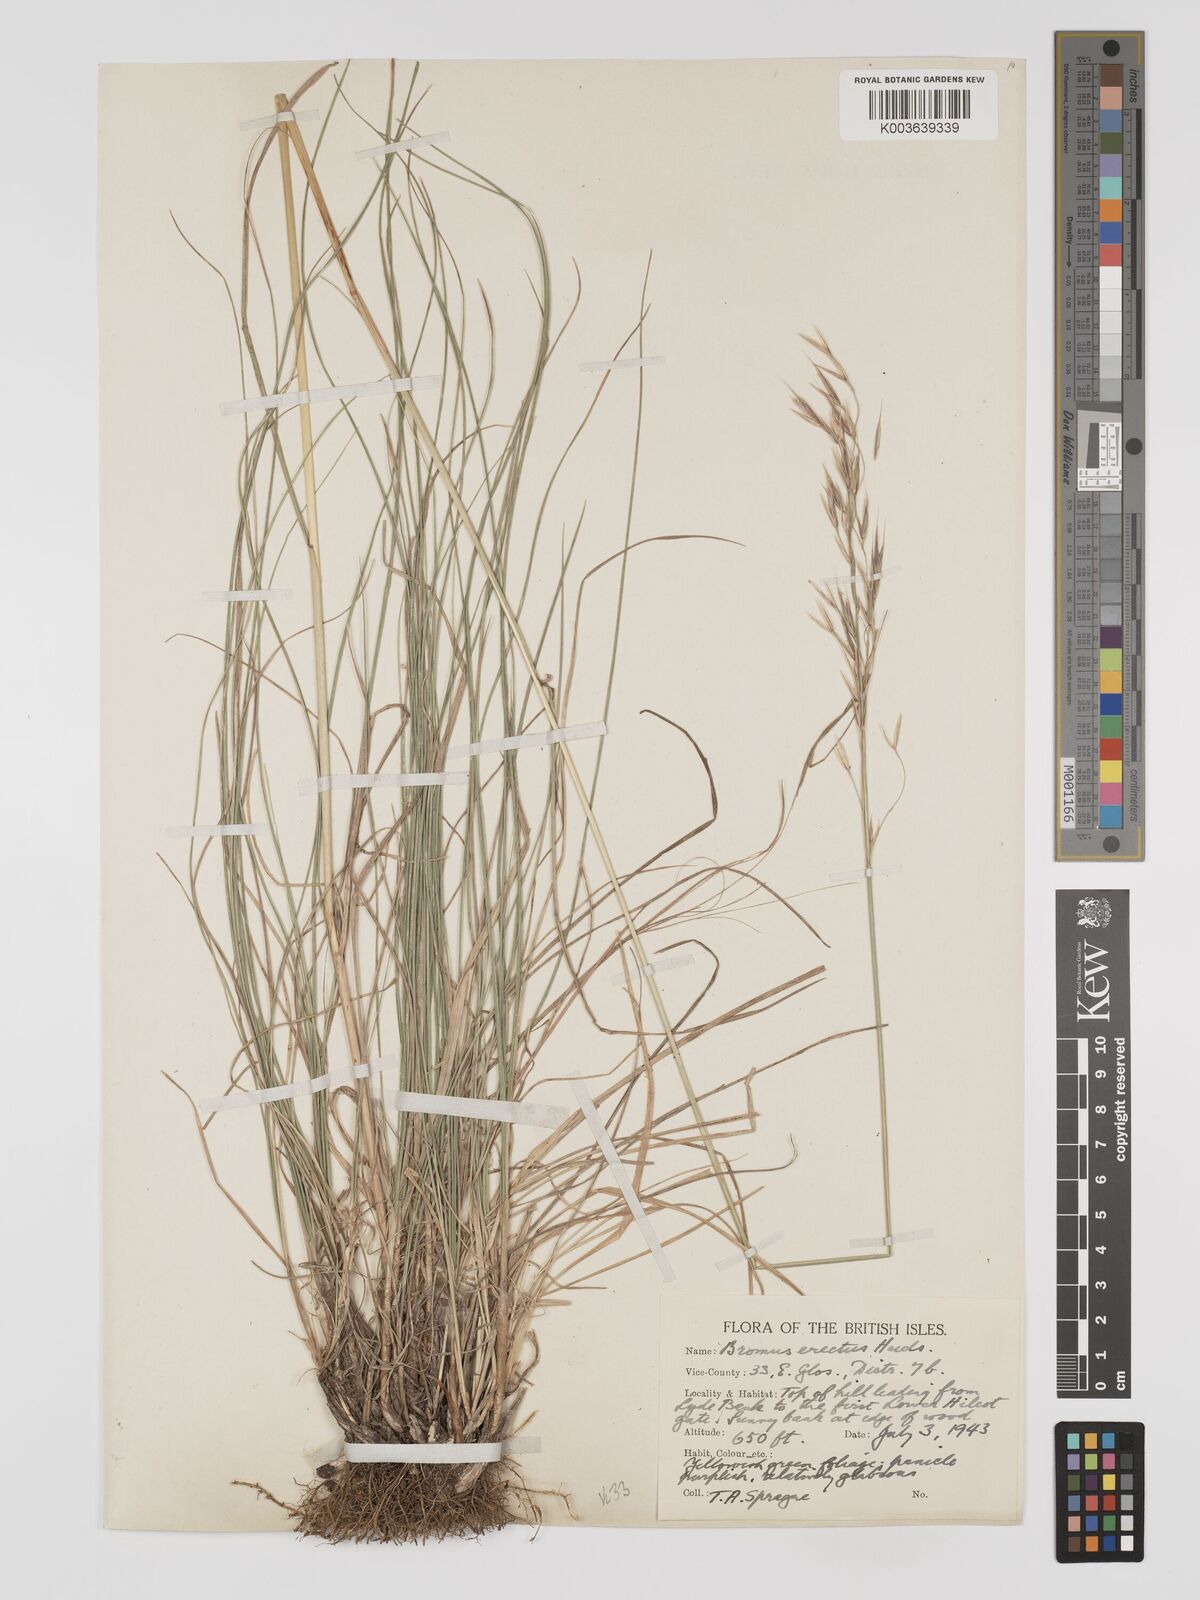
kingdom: Plantae
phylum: Tracheophyta
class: Liliopsida
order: Poales
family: Poaceae
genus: Bromus
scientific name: Bromus erectus
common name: Erect brome
